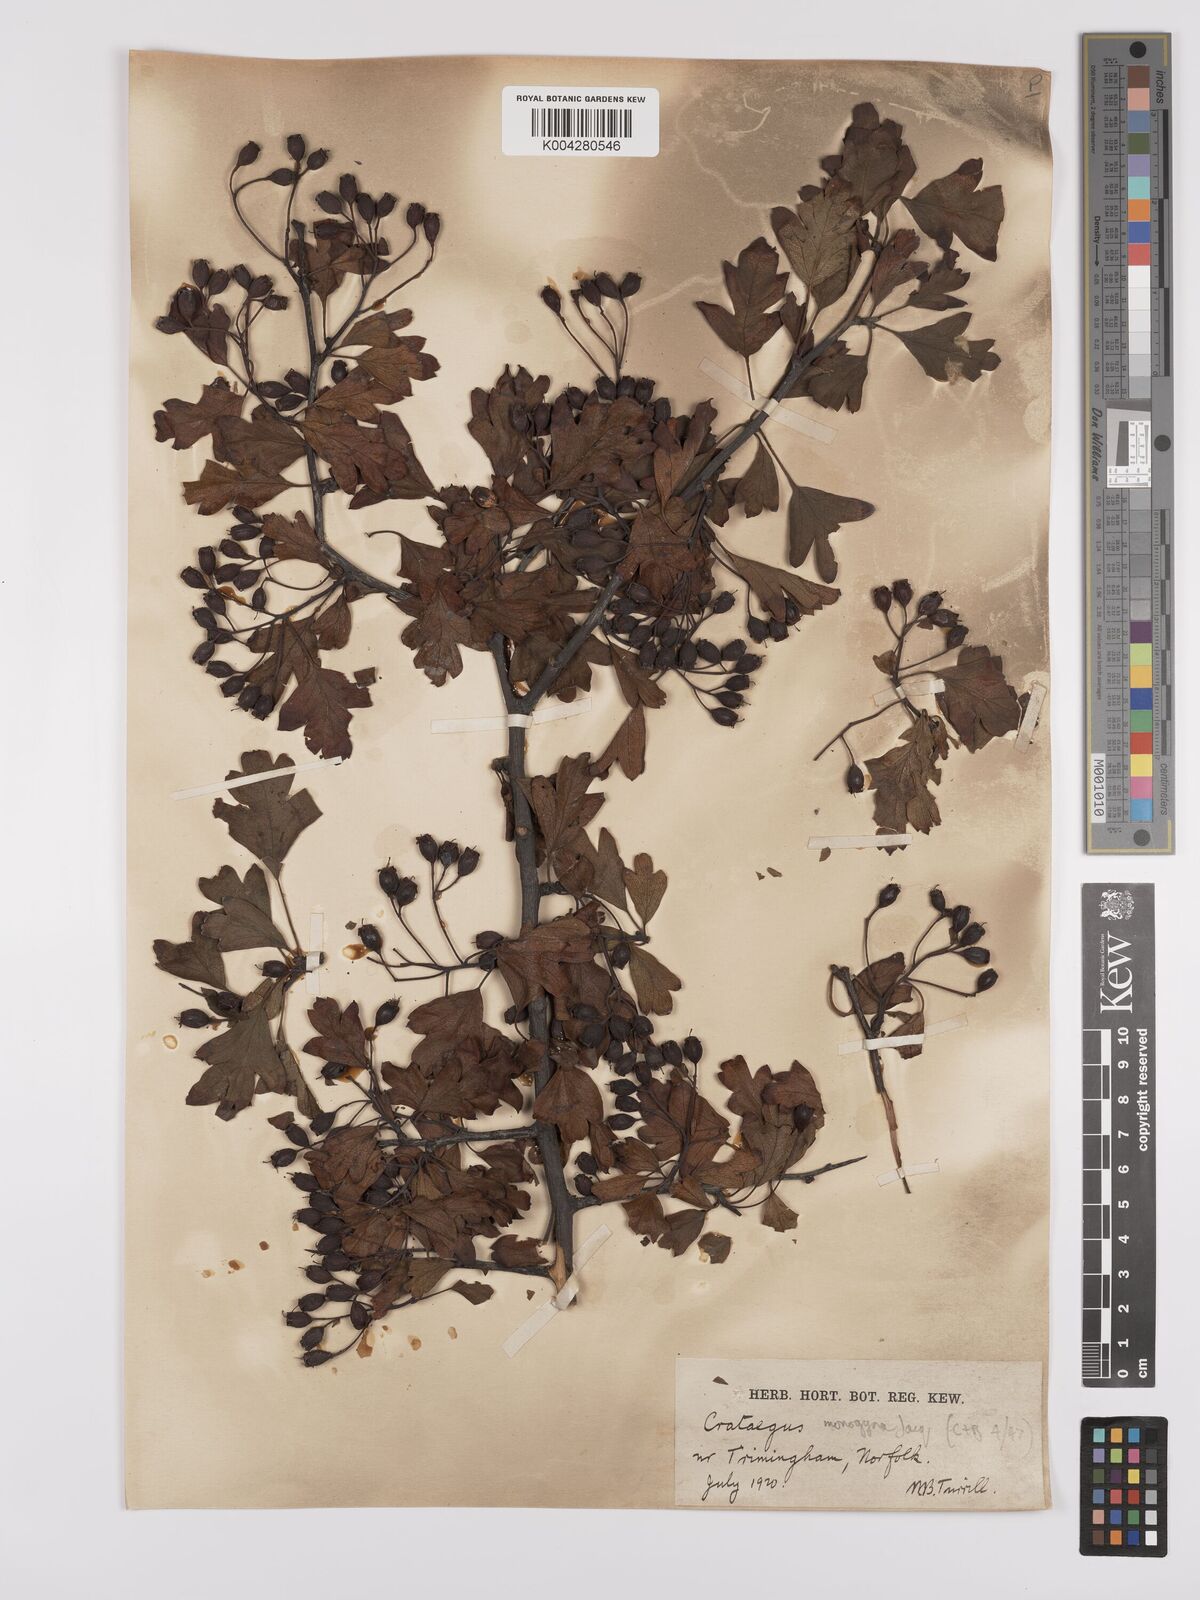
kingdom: Plantae
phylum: Tracheophyta
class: Magnoliopsida
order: Rosales
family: Rosaceae
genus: Crataegus
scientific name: Crataegus monogyna
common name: Hawthorn
